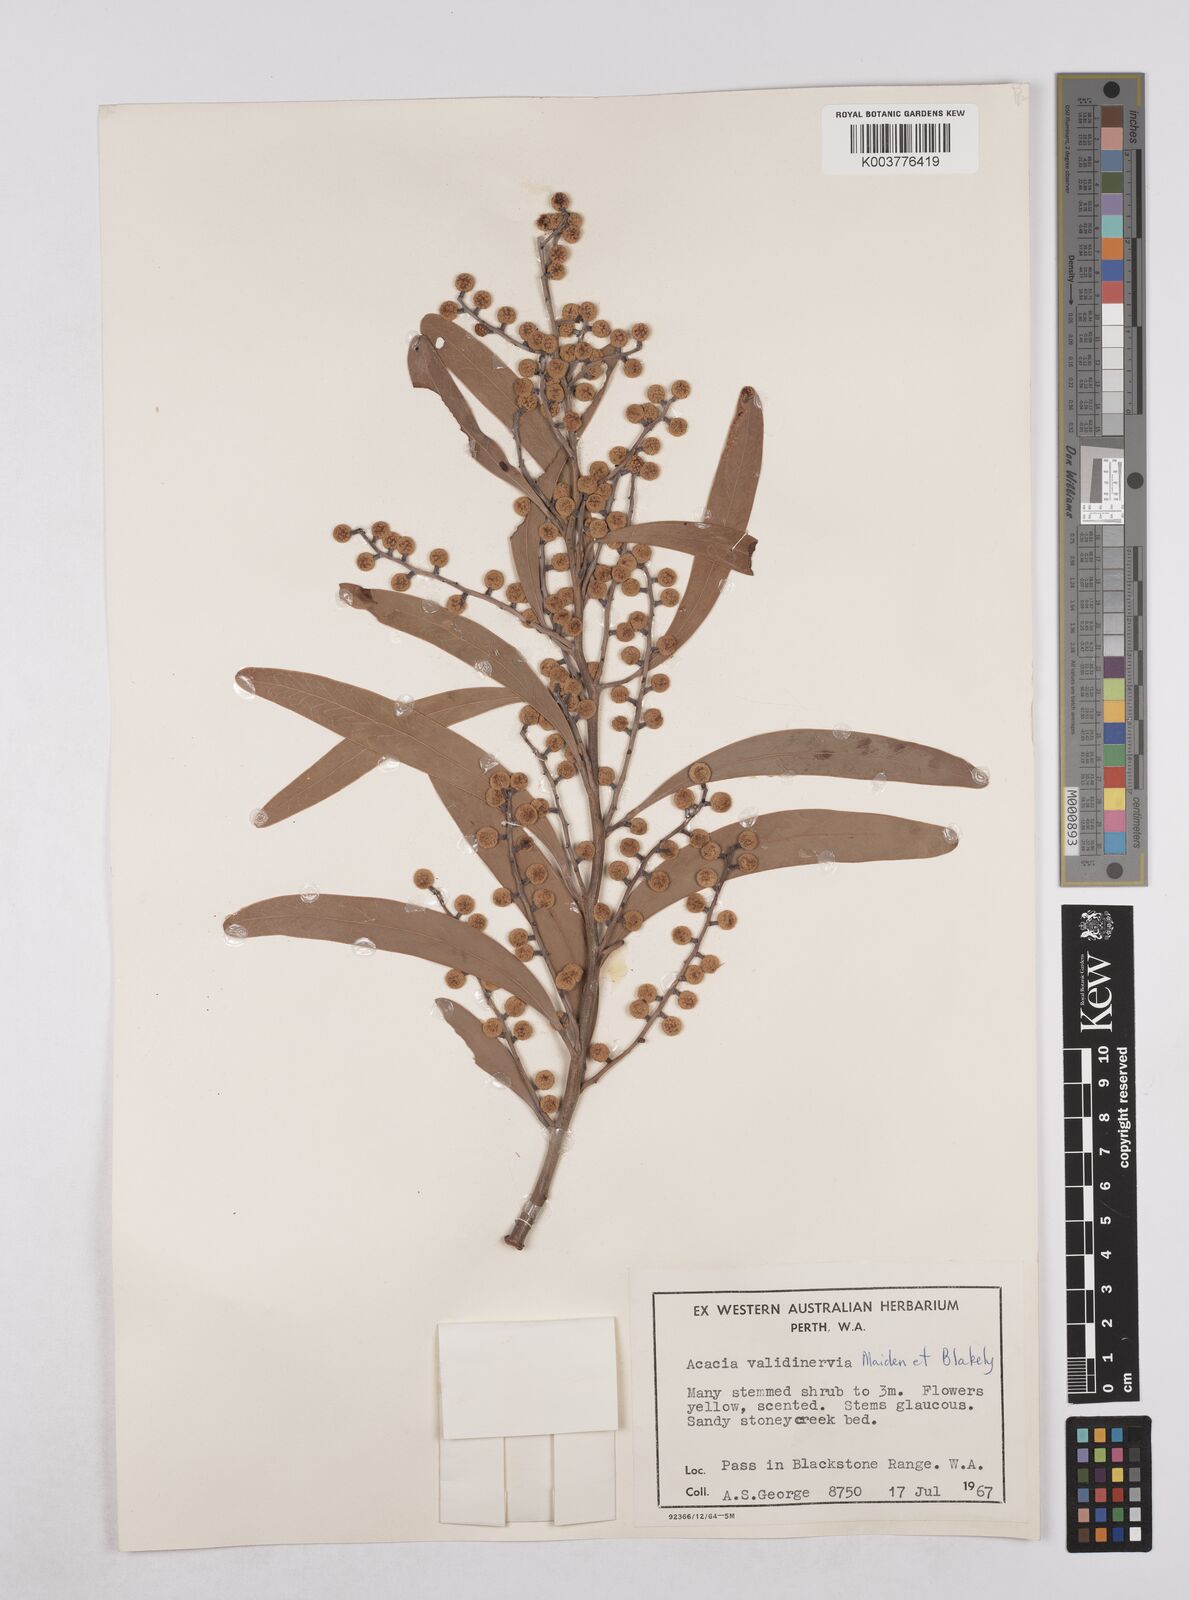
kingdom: Plantae
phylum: Tracheophyta
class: Magnoliopsida
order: Fabales
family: Fabaceae
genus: Acacia
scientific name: Acacia validinervia
